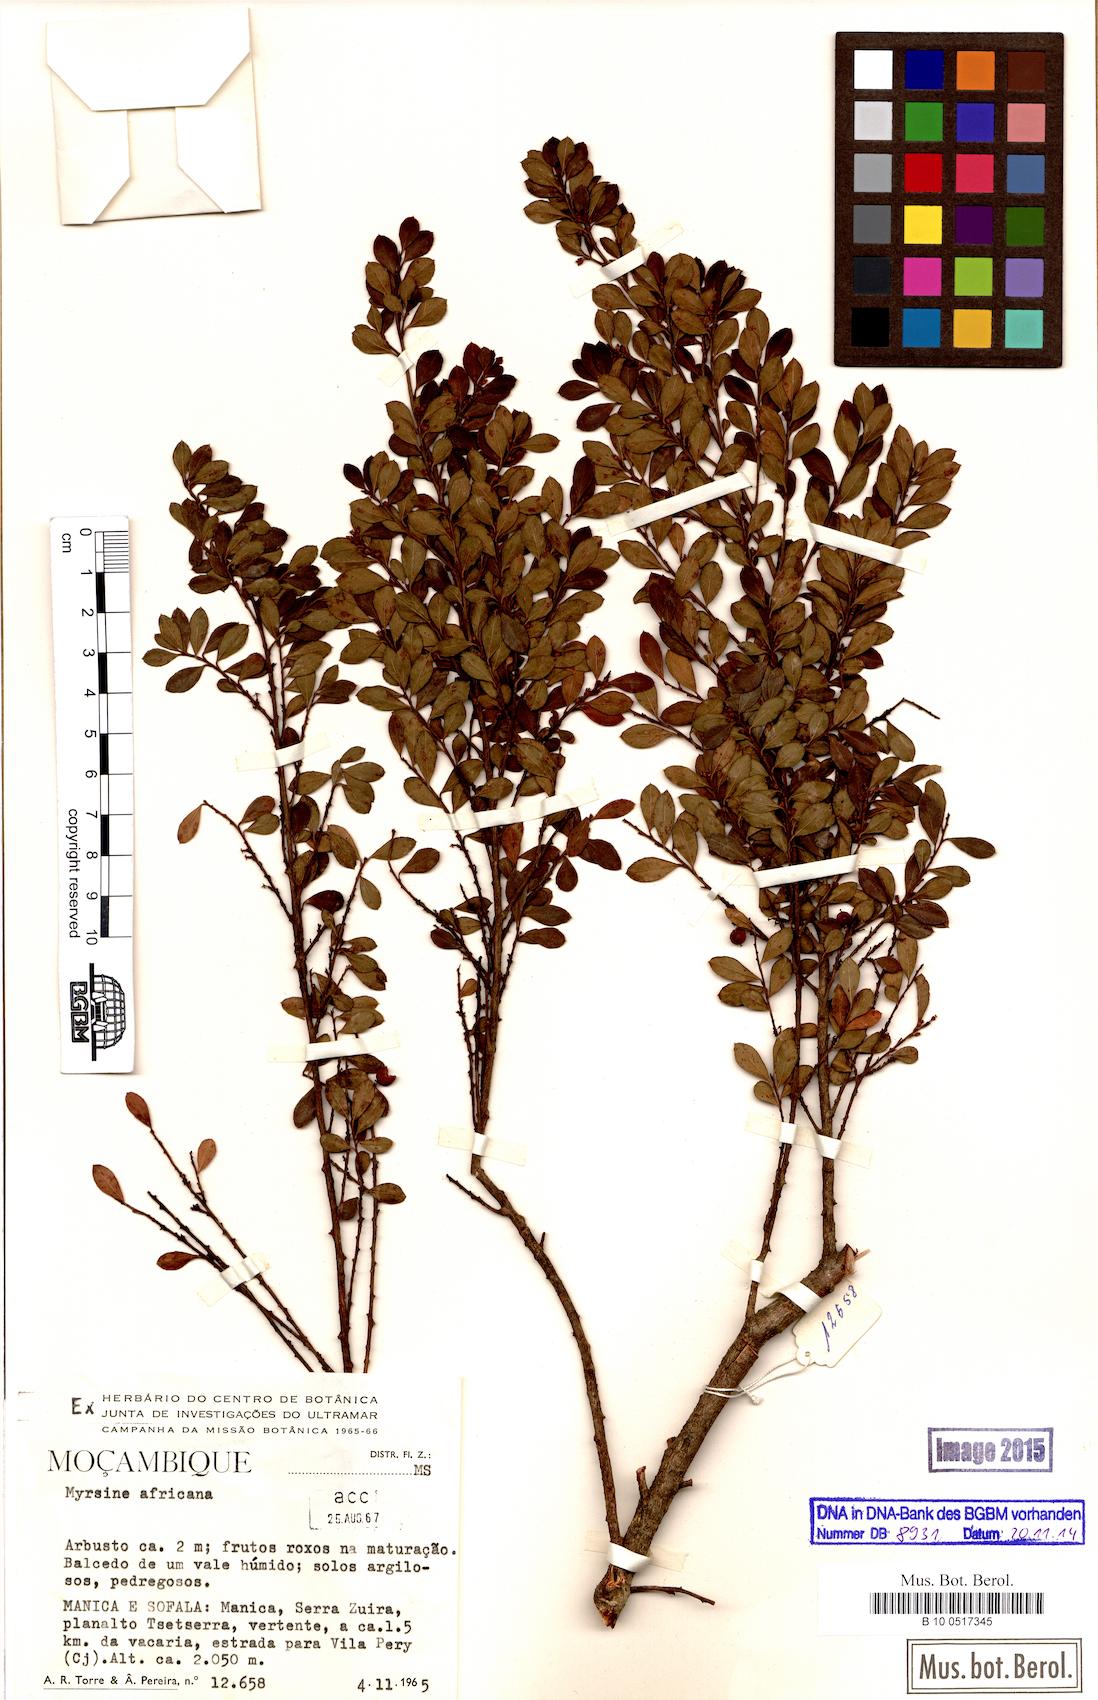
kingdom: Plantae
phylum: Tracheophyta
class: Magnoliopsida
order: Ericales
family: Primulaceae
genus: Myrsine
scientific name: Myrsine africana
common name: African-boxwood
